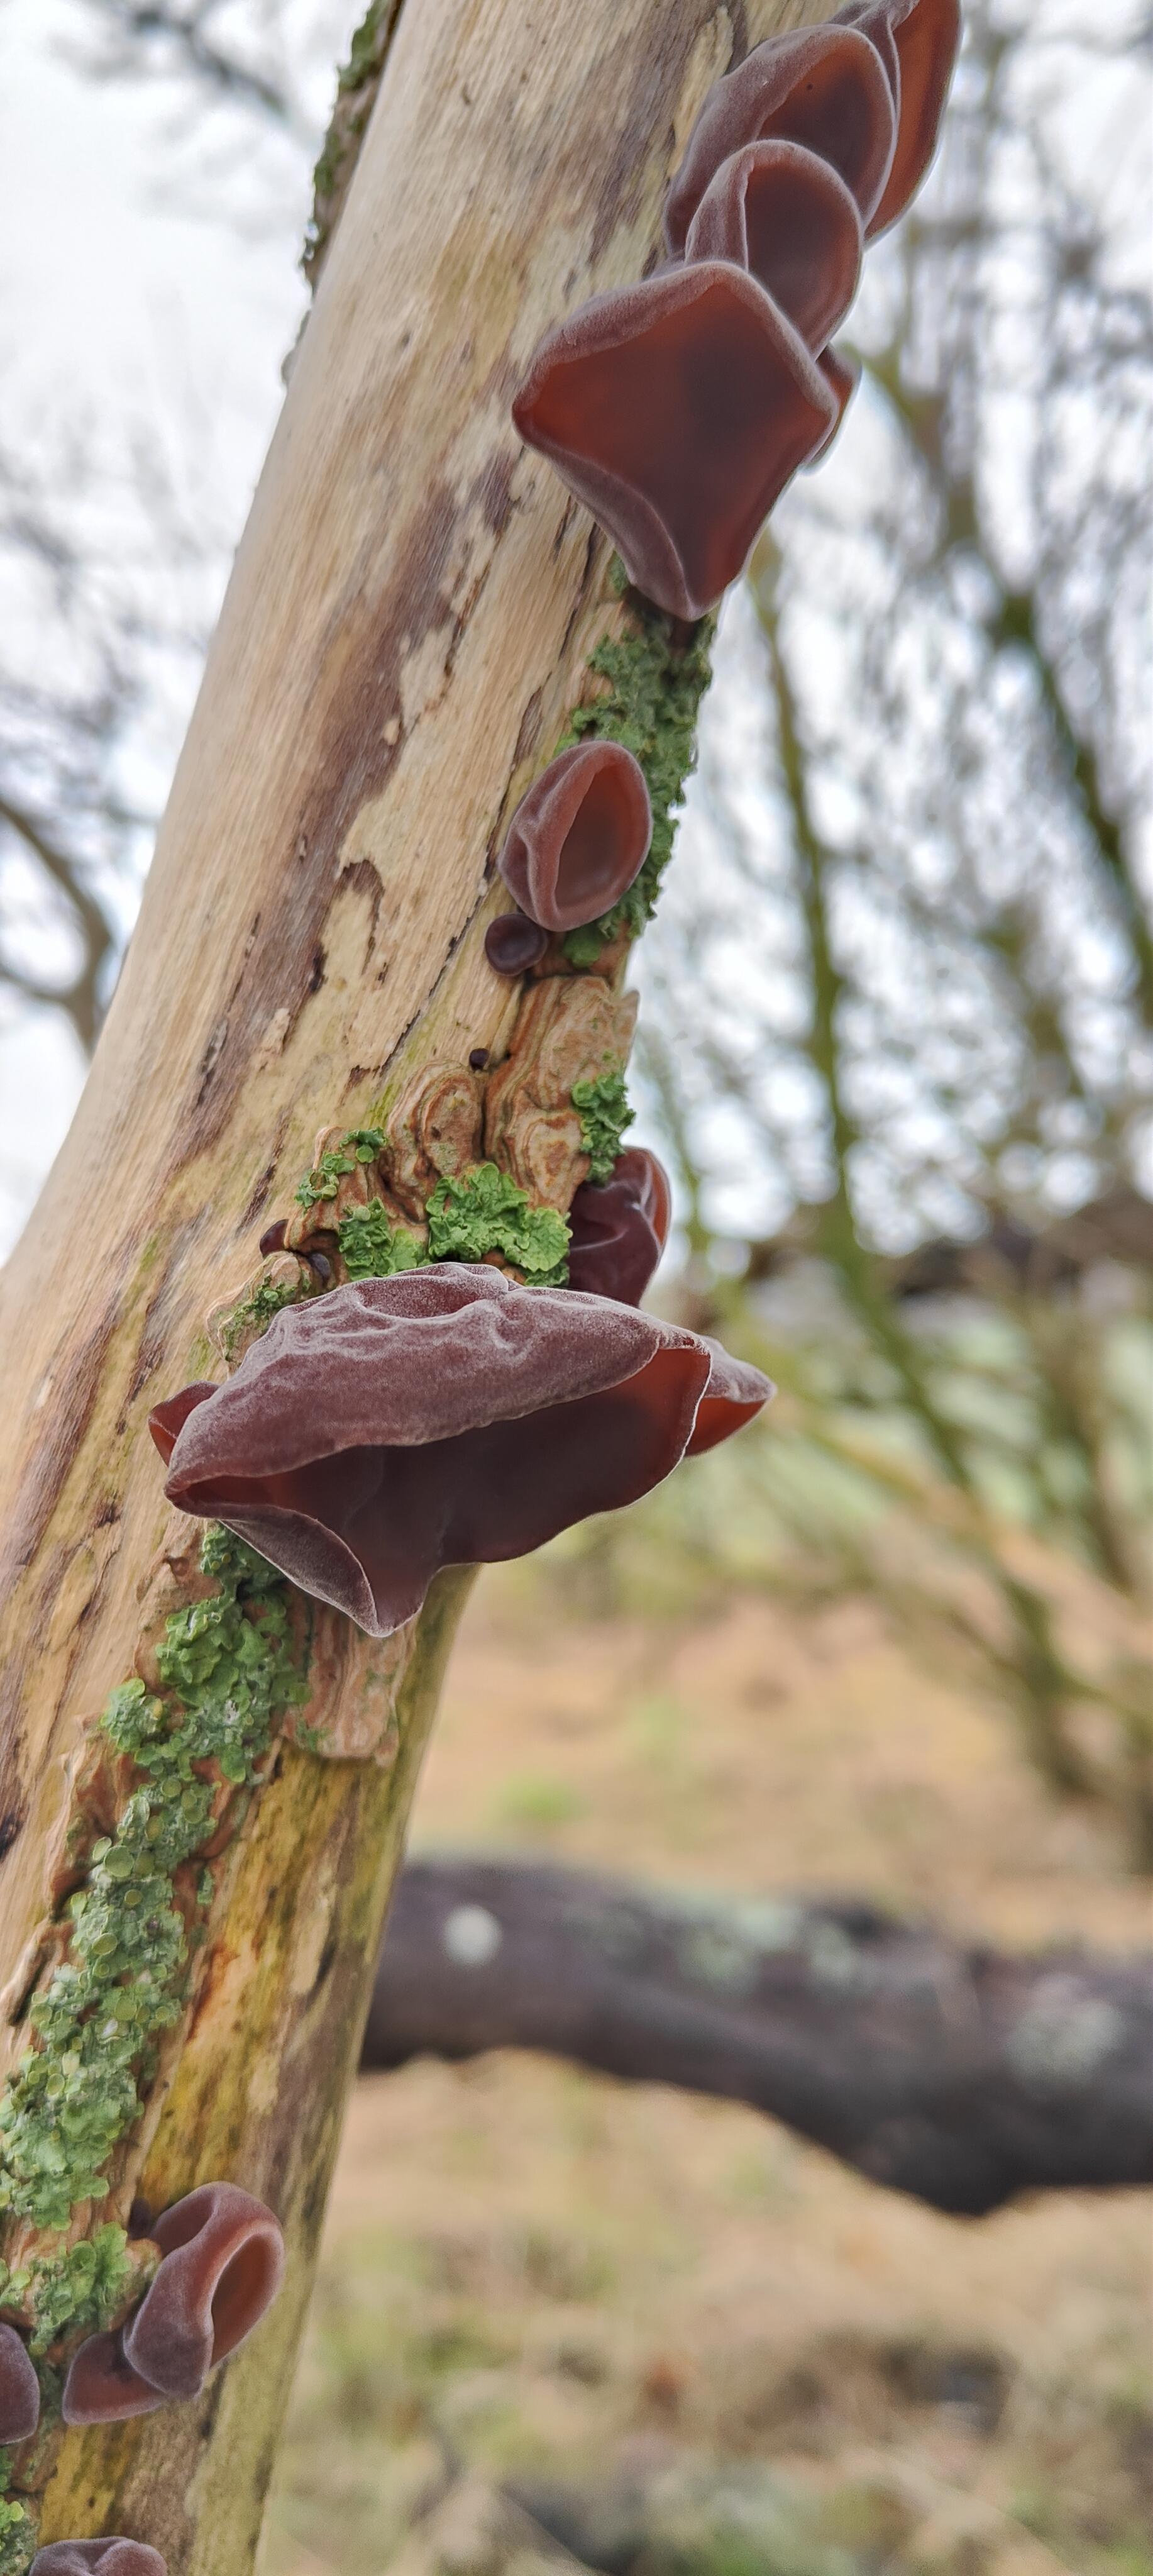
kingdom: Fungi
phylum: Basidiomycota
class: Agaricomycetes
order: Auriculariales
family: Auriculariaceae
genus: Auricularia
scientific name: Auricularia auricula-judae
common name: almindelig judasøre
